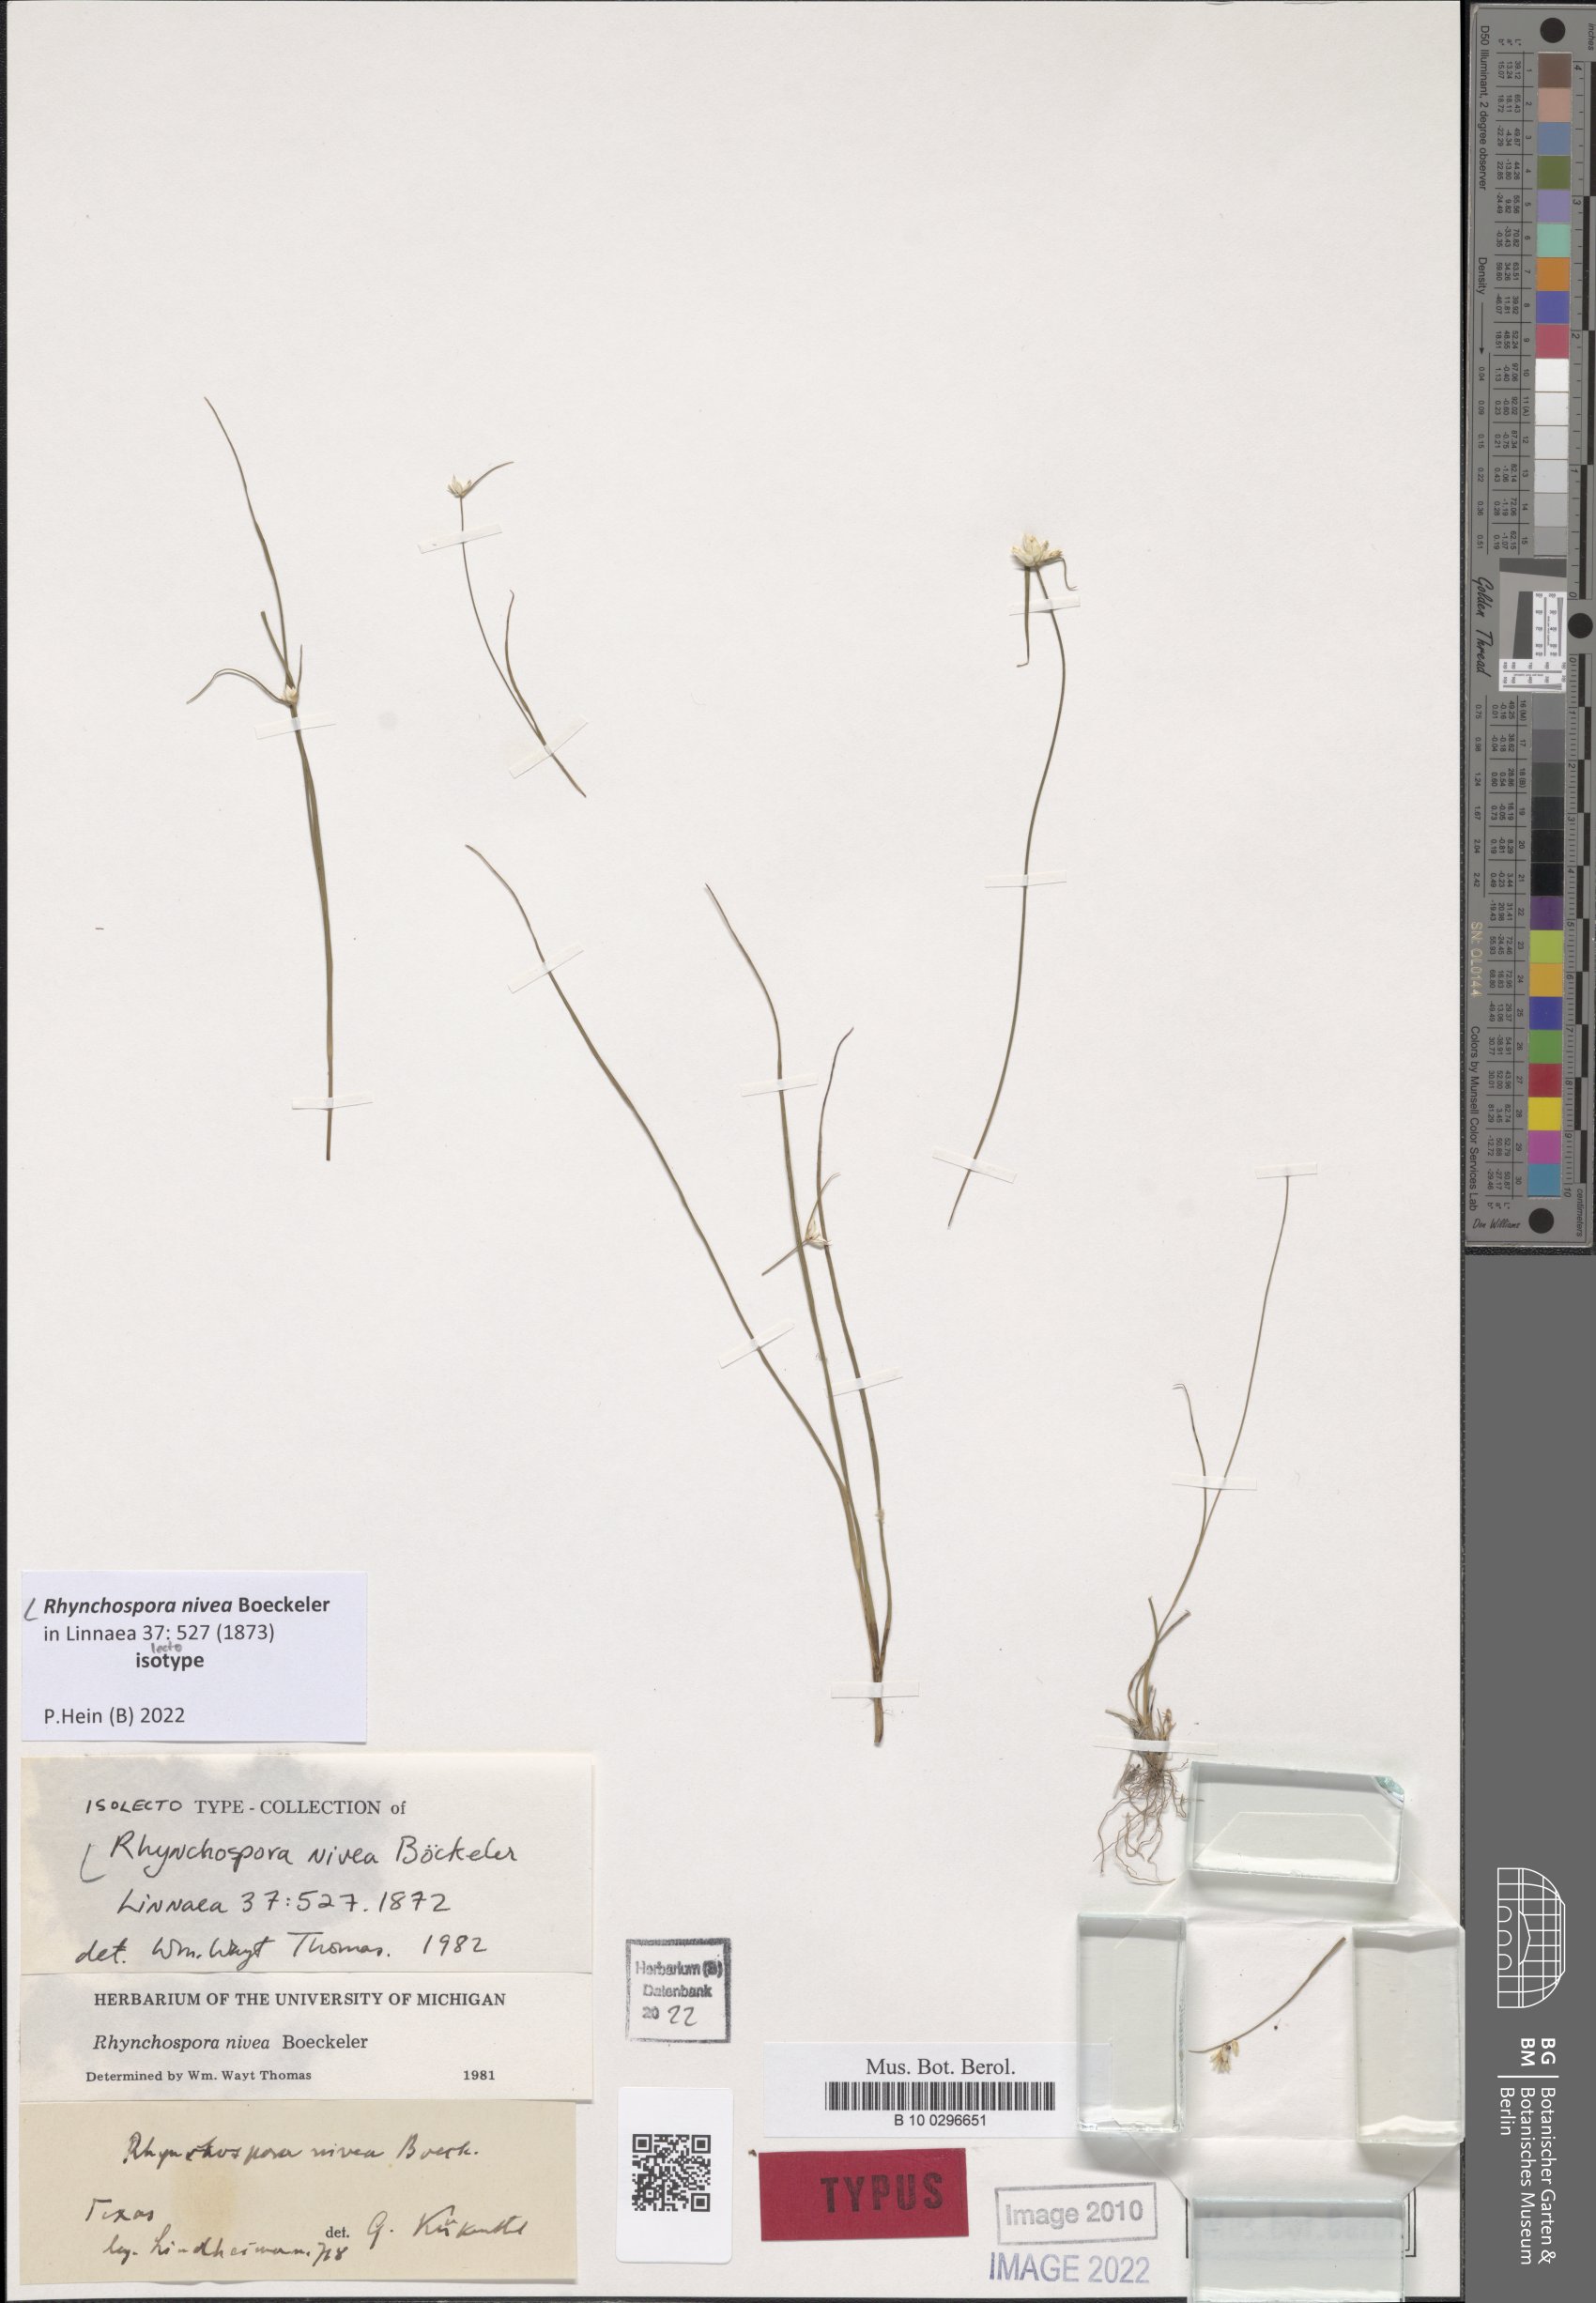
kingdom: Plantae
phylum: Tracheophyta
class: Liliopsida
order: Poales
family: Cyperaceae
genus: Rhynchospora
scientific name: Rhynchospora nivea
